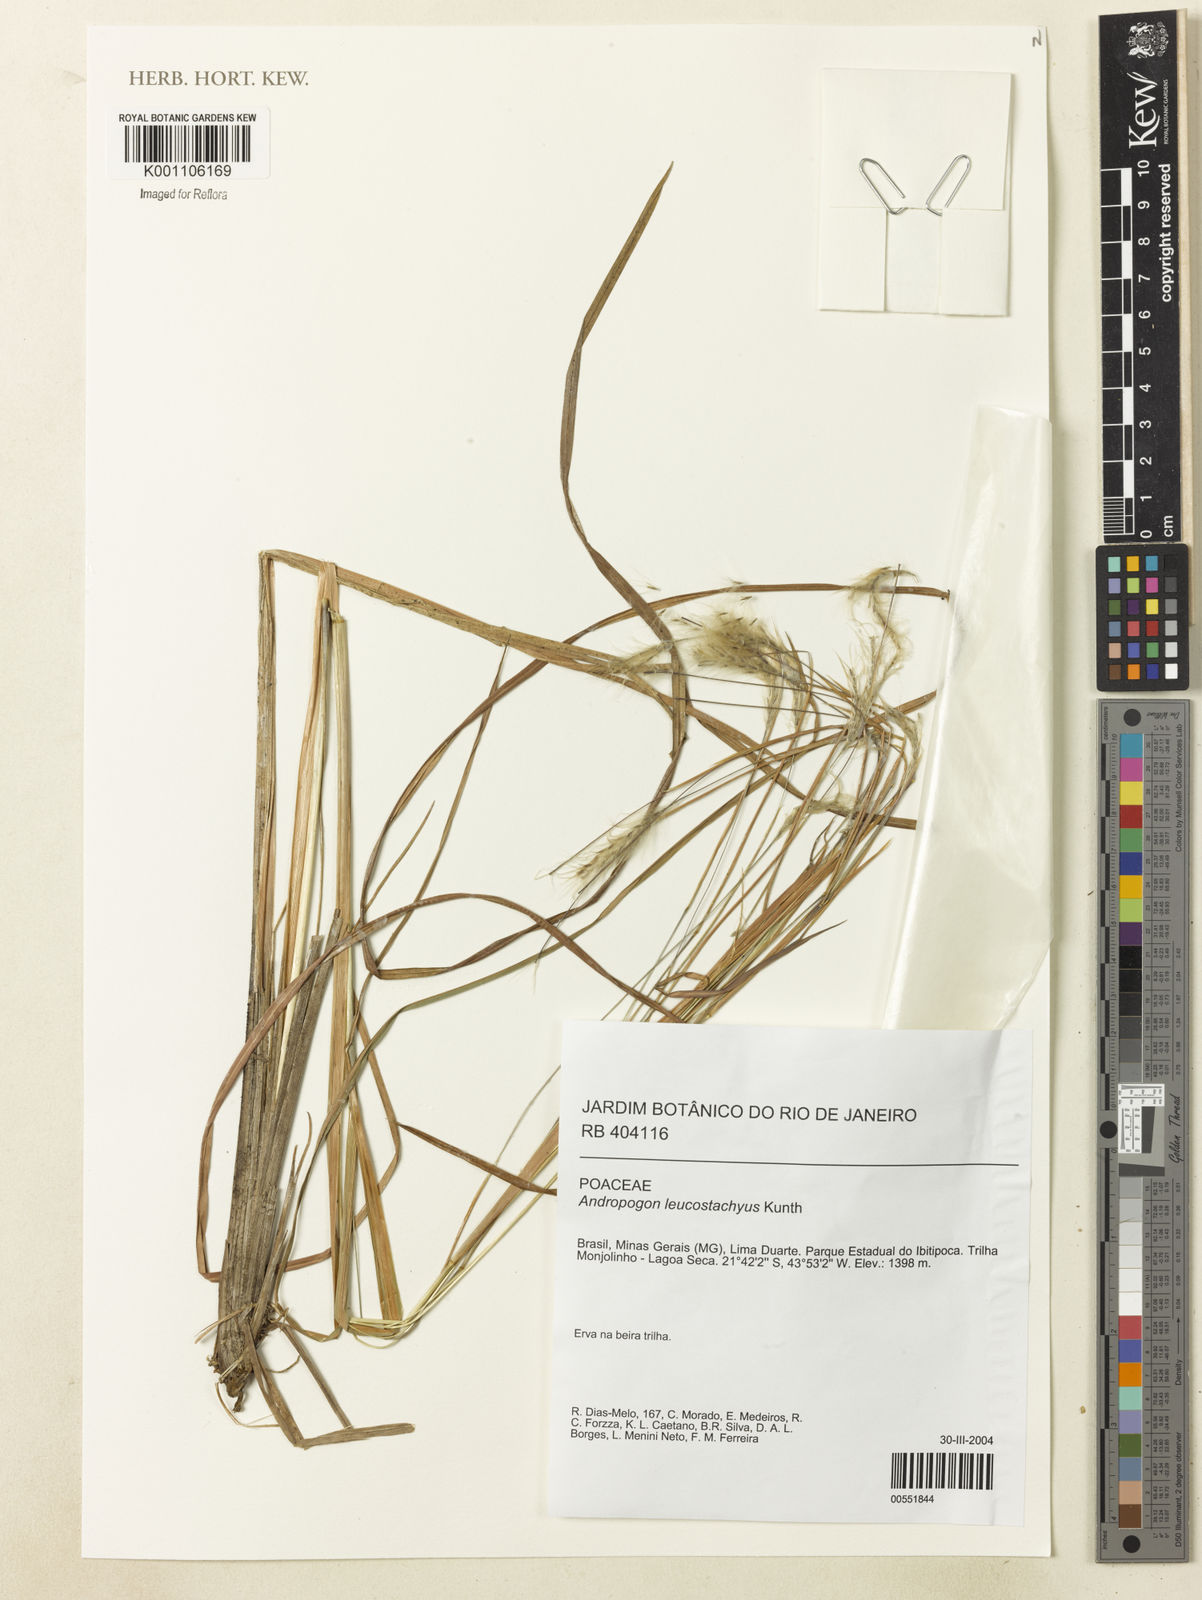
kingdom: Plantae
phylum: Tracheophyta
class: Liliopsida
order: Poales
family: Poaceae
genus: Andropogon
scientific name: Andropogon leucostachyus
